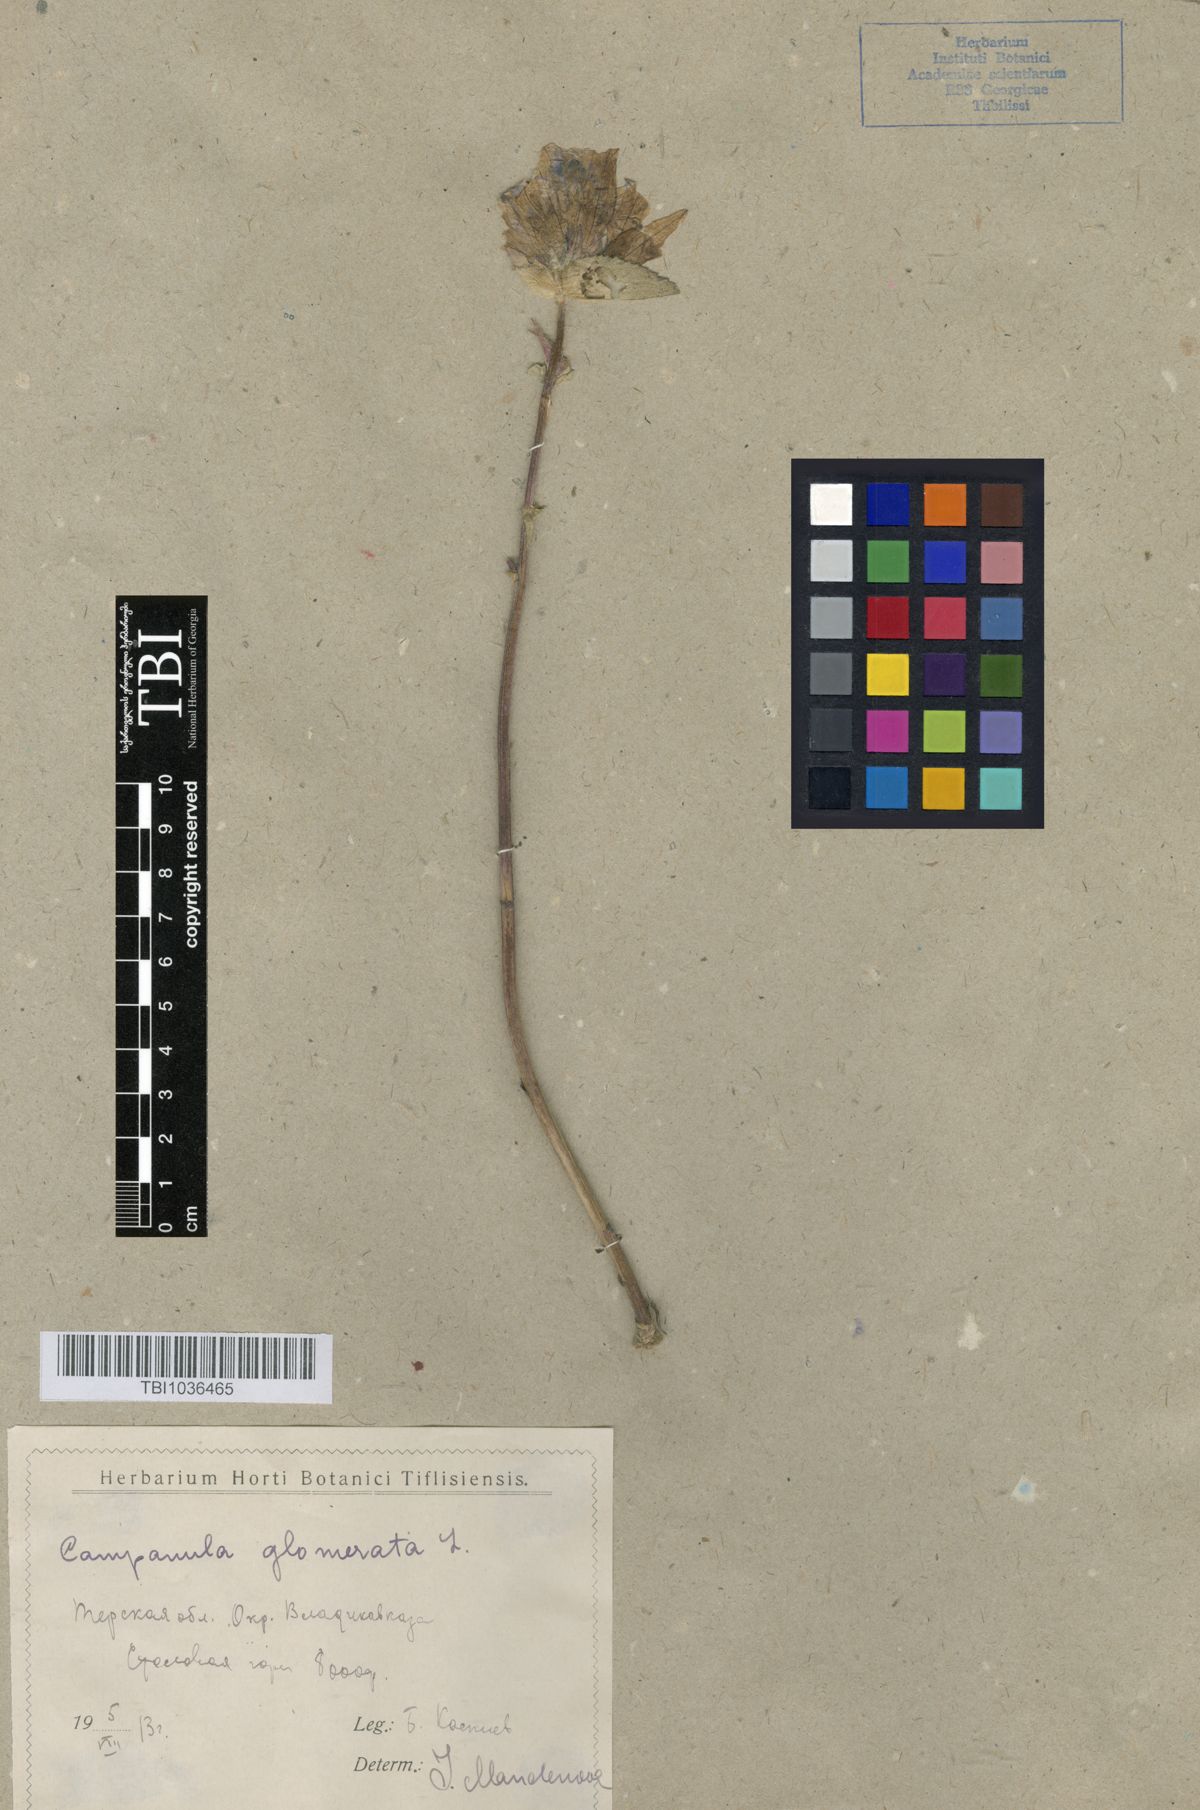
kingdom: Plantae
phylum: Tracheophyta
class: Magnoliopsida
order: Asterales
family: Campanulaceae
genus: Campanula
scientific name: Campanula glomerata
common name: Clustered bellflower
